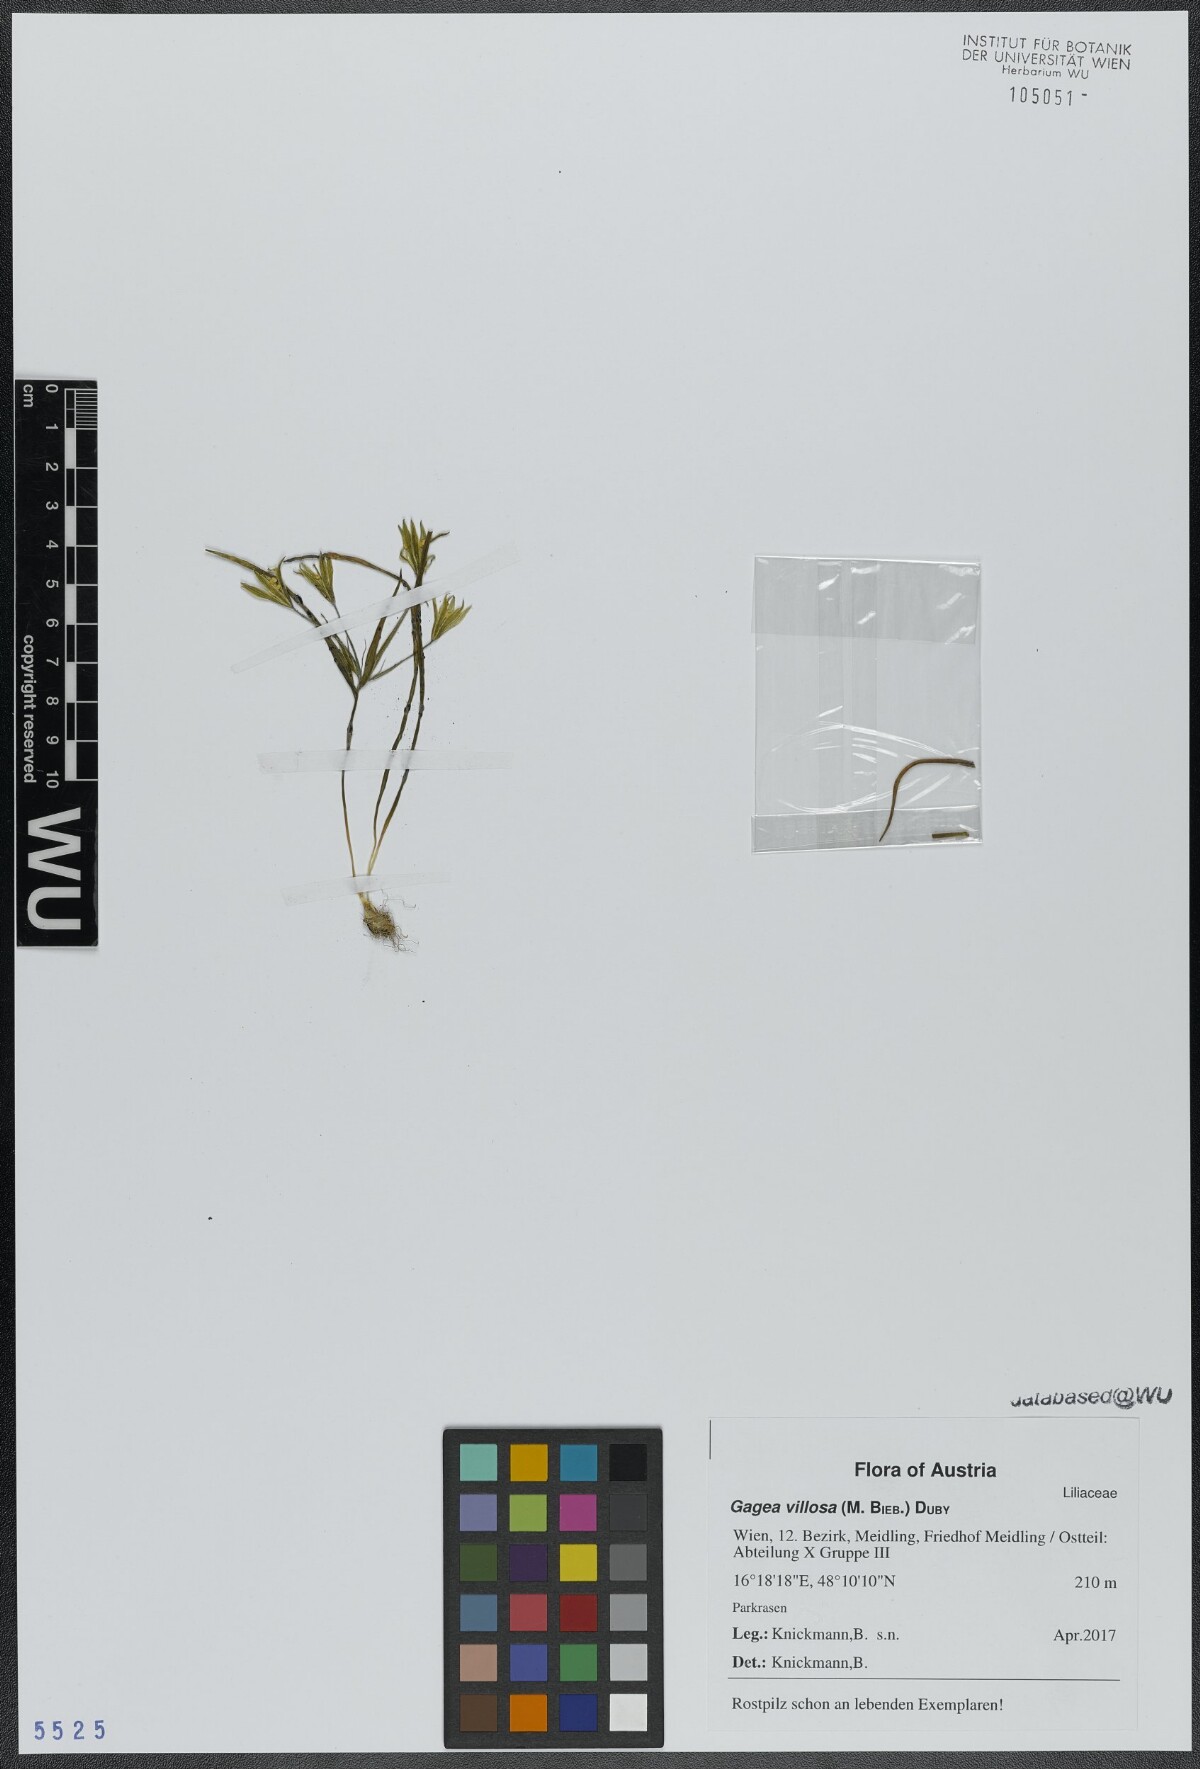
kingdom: Plantae
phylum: Tracheophyta
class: Liliopsida
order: Liliales
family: Liliaceae
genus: Gagea
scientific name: Gagea villosa
